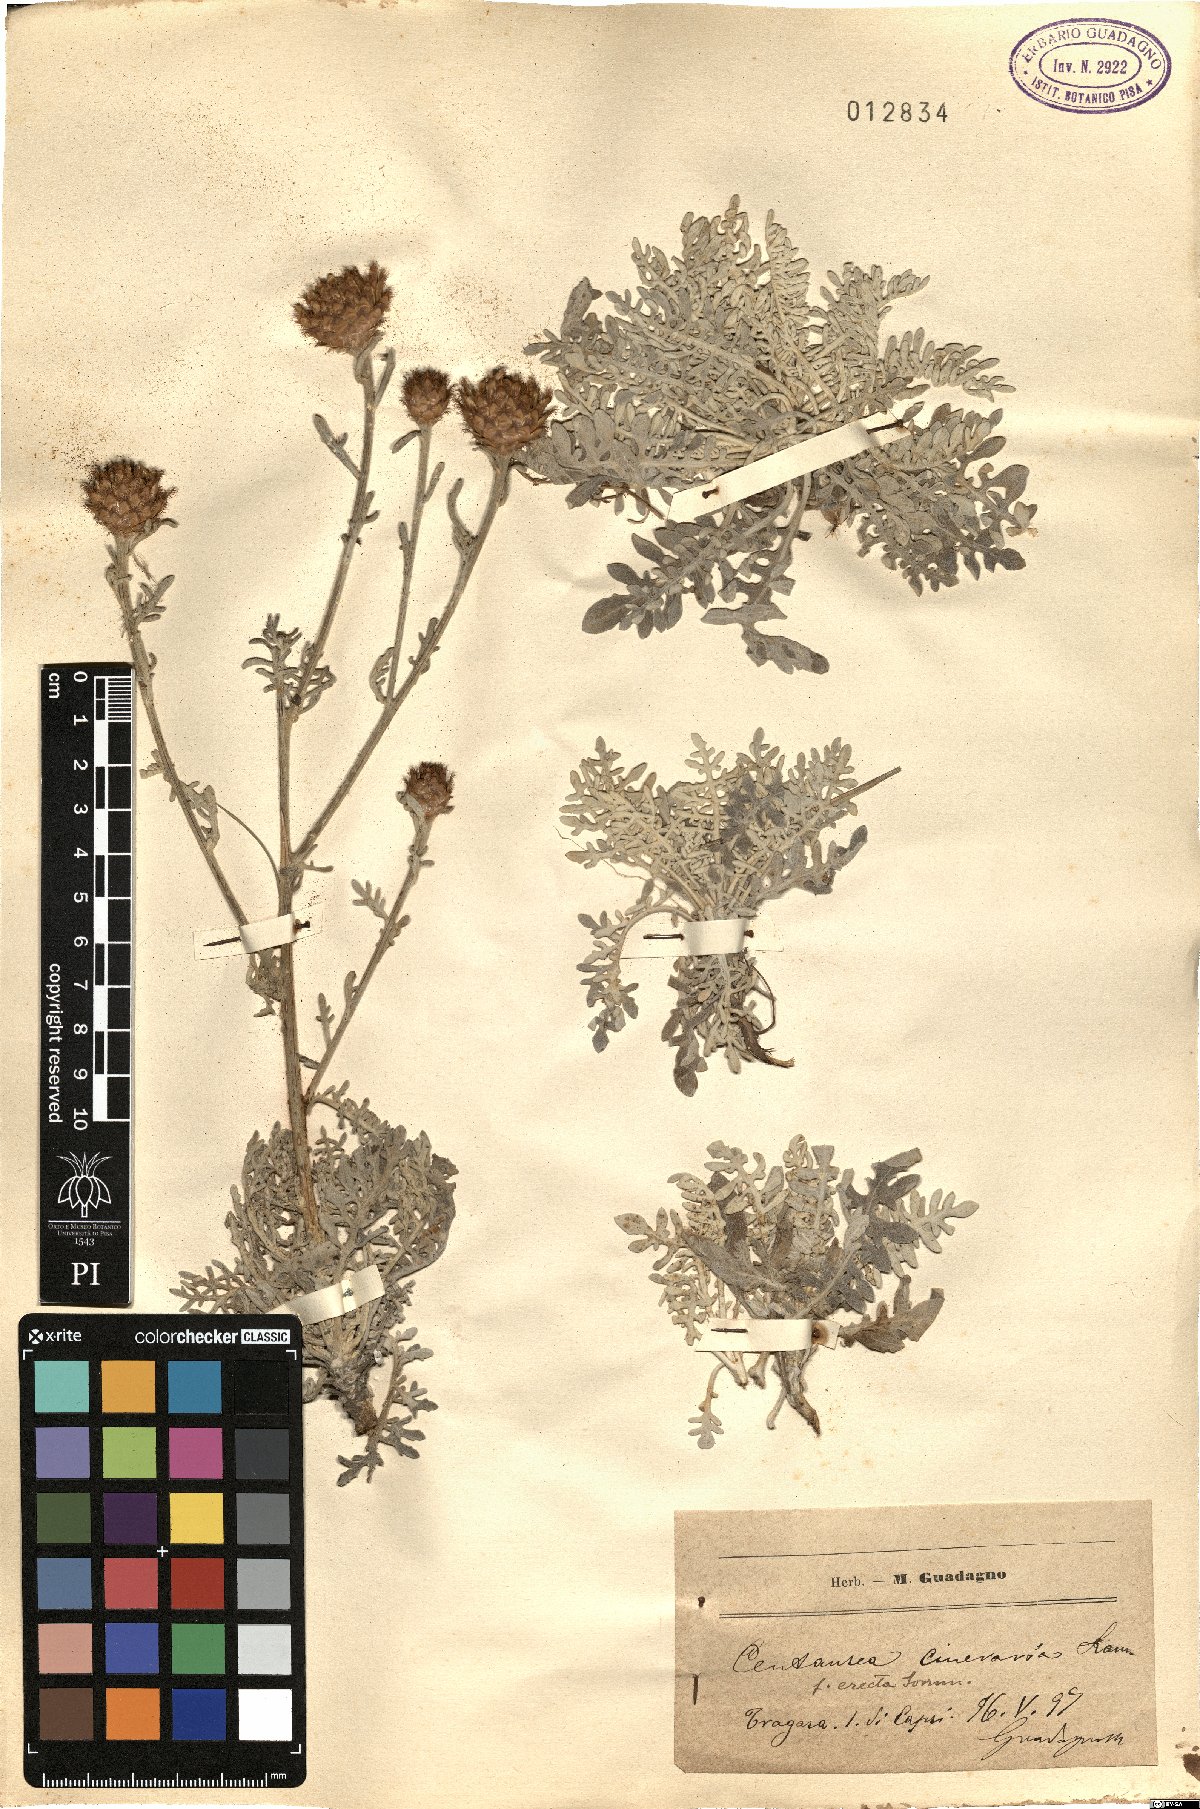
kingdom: Plantae
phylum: Tracheophyta
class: Magnoliopsida
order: Asterales
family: Asteraceae
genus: Centaurea
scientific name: Centaurea cineraria
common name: Dusty miller
